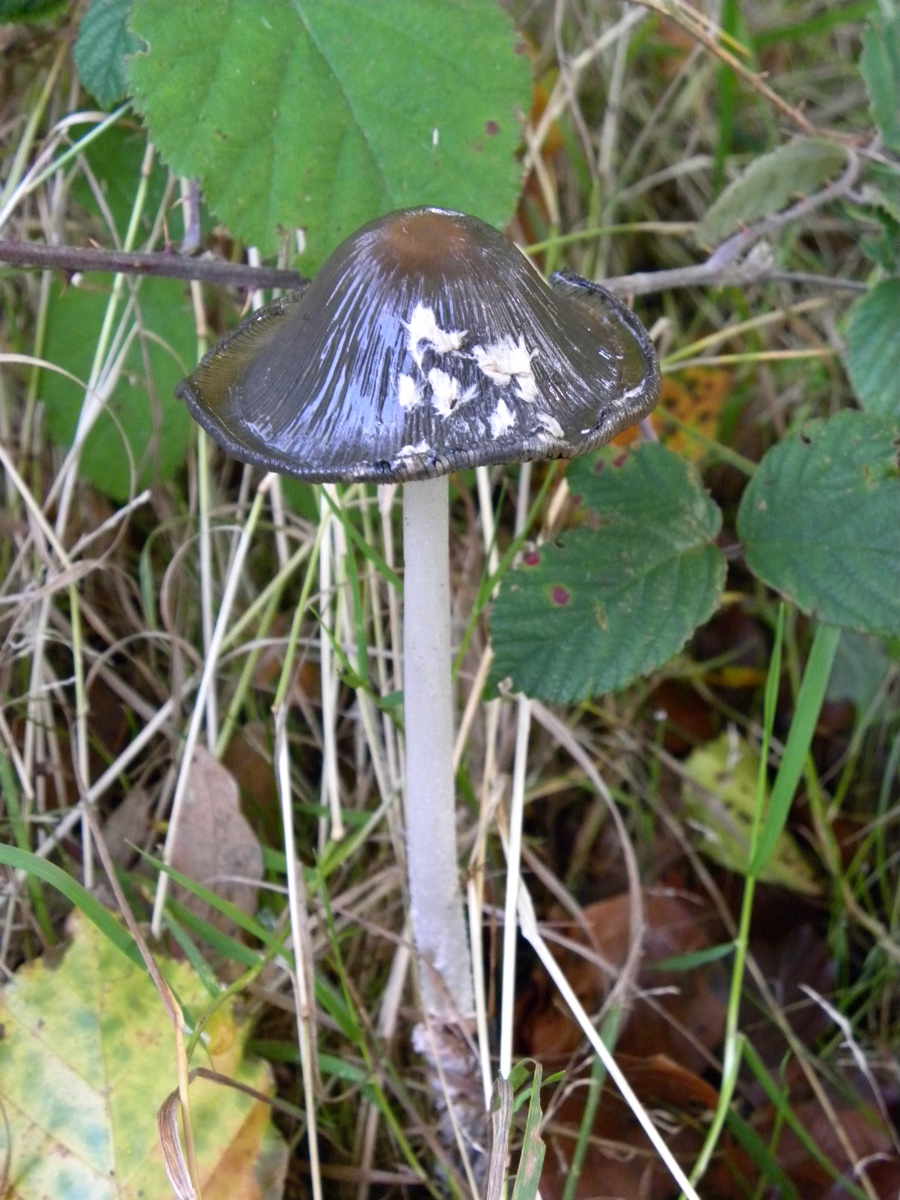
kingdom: Fungi
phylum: Basidiomycota
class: Agaricomycetes
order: Agaricales
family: Psathyrellaceae
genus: Coprinopsis
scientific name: Coprinopsis picacea
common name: skade-blækhat
